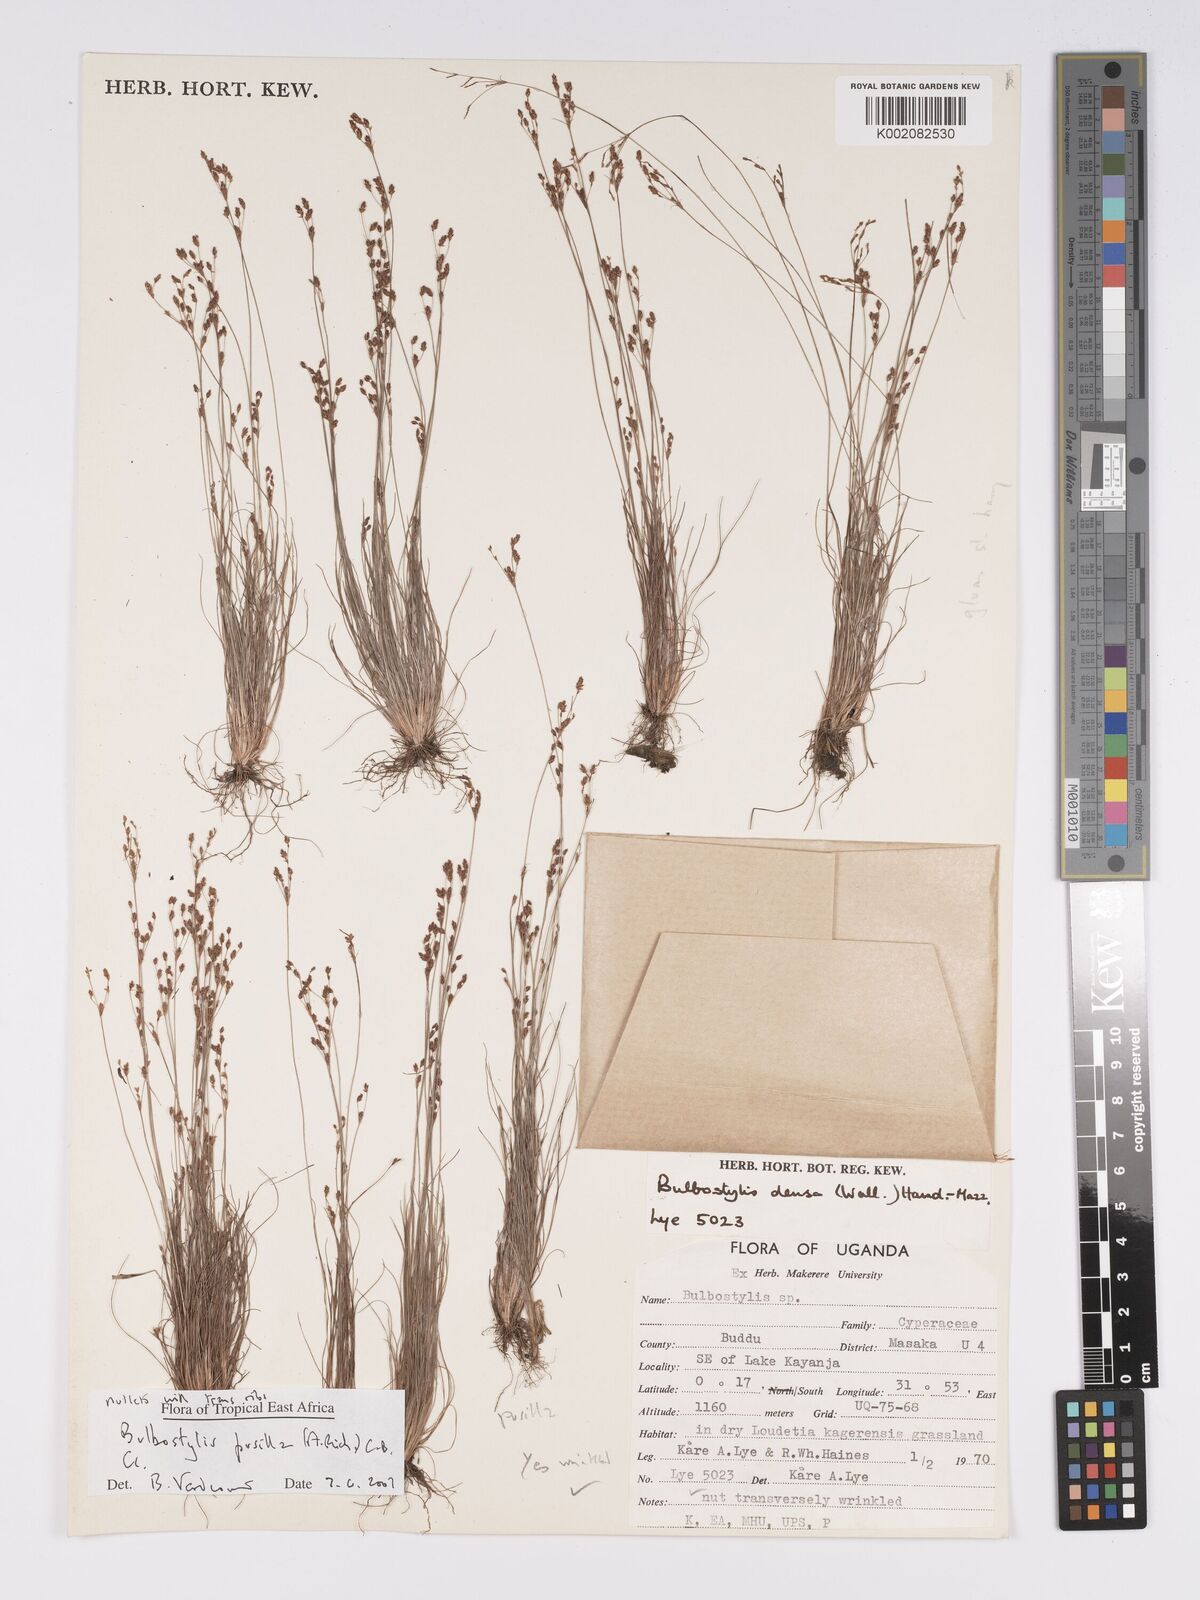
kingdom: Plantae
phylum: Tracheophyta
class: Liliopsida
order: Poales
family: Cyperaceae
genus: Bulbostylis
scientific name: Bulbostylis pusilla
